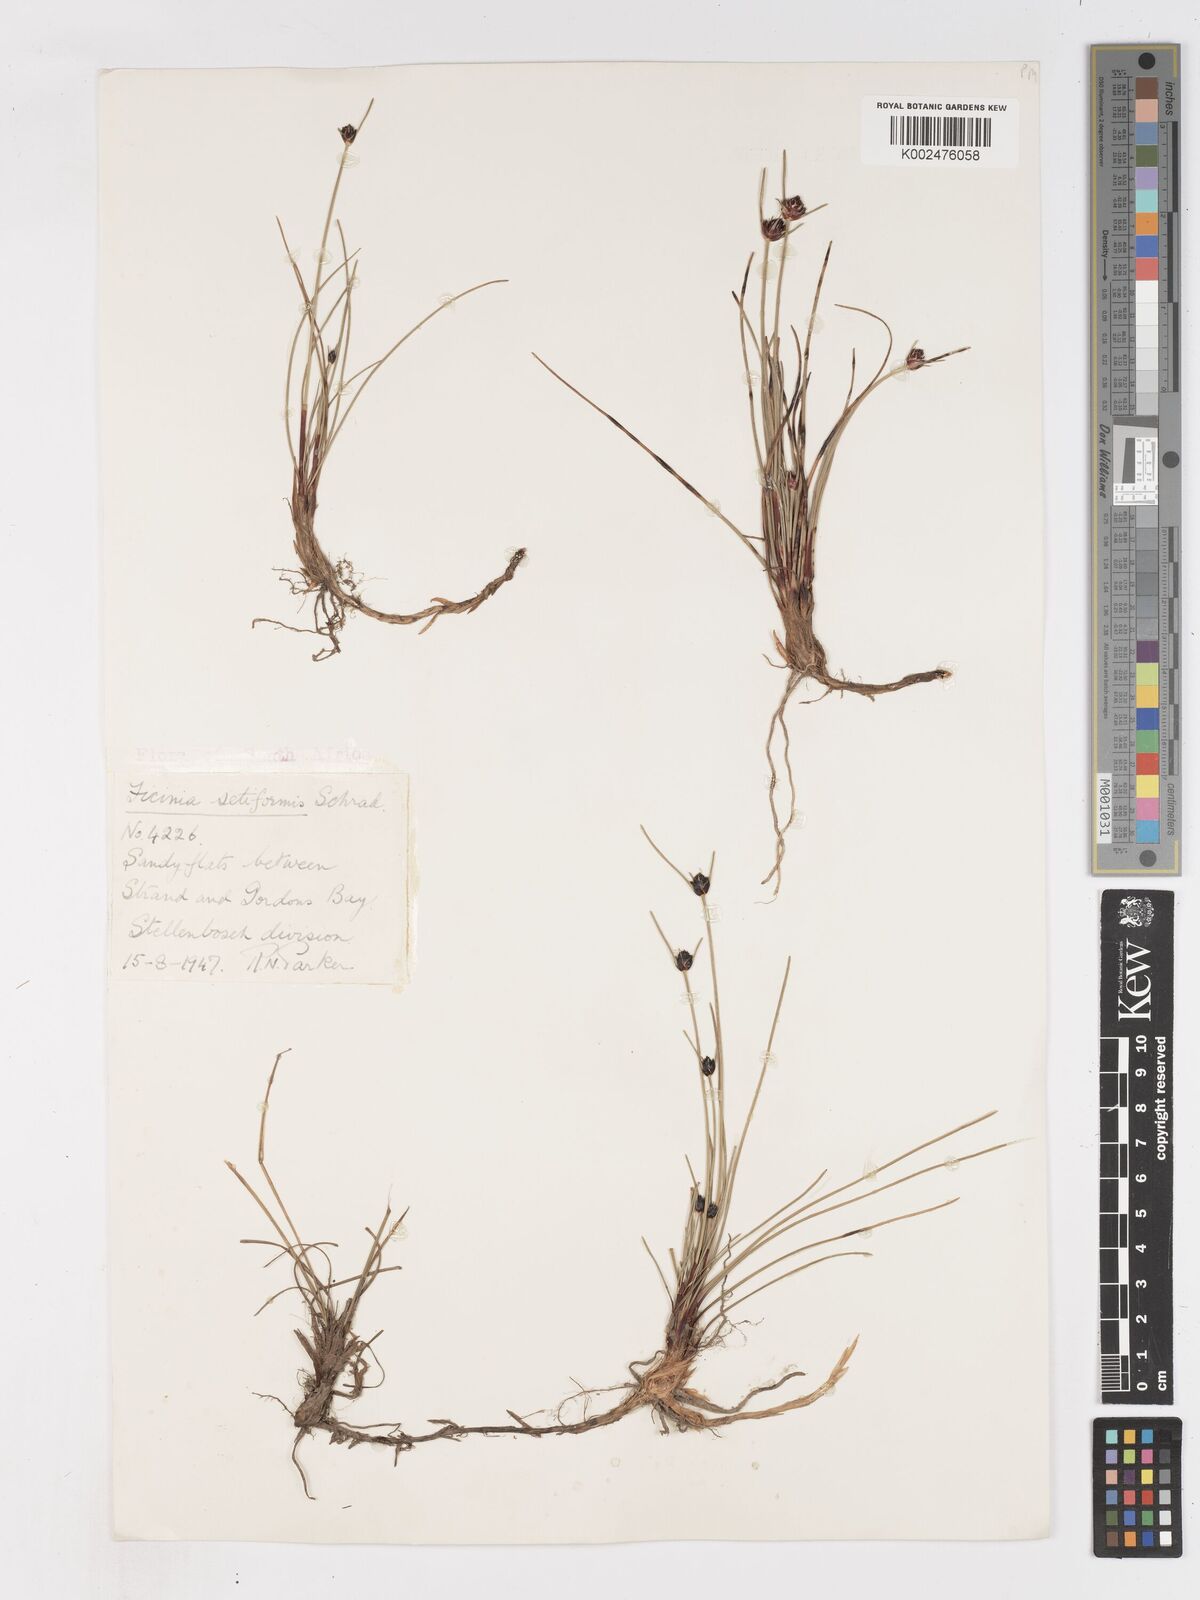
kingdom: Plantae
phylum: Tracheophyta
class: Liliopsida
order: Poales
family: Cyperaceae
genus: Ficinia
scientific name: Ficinia indica
